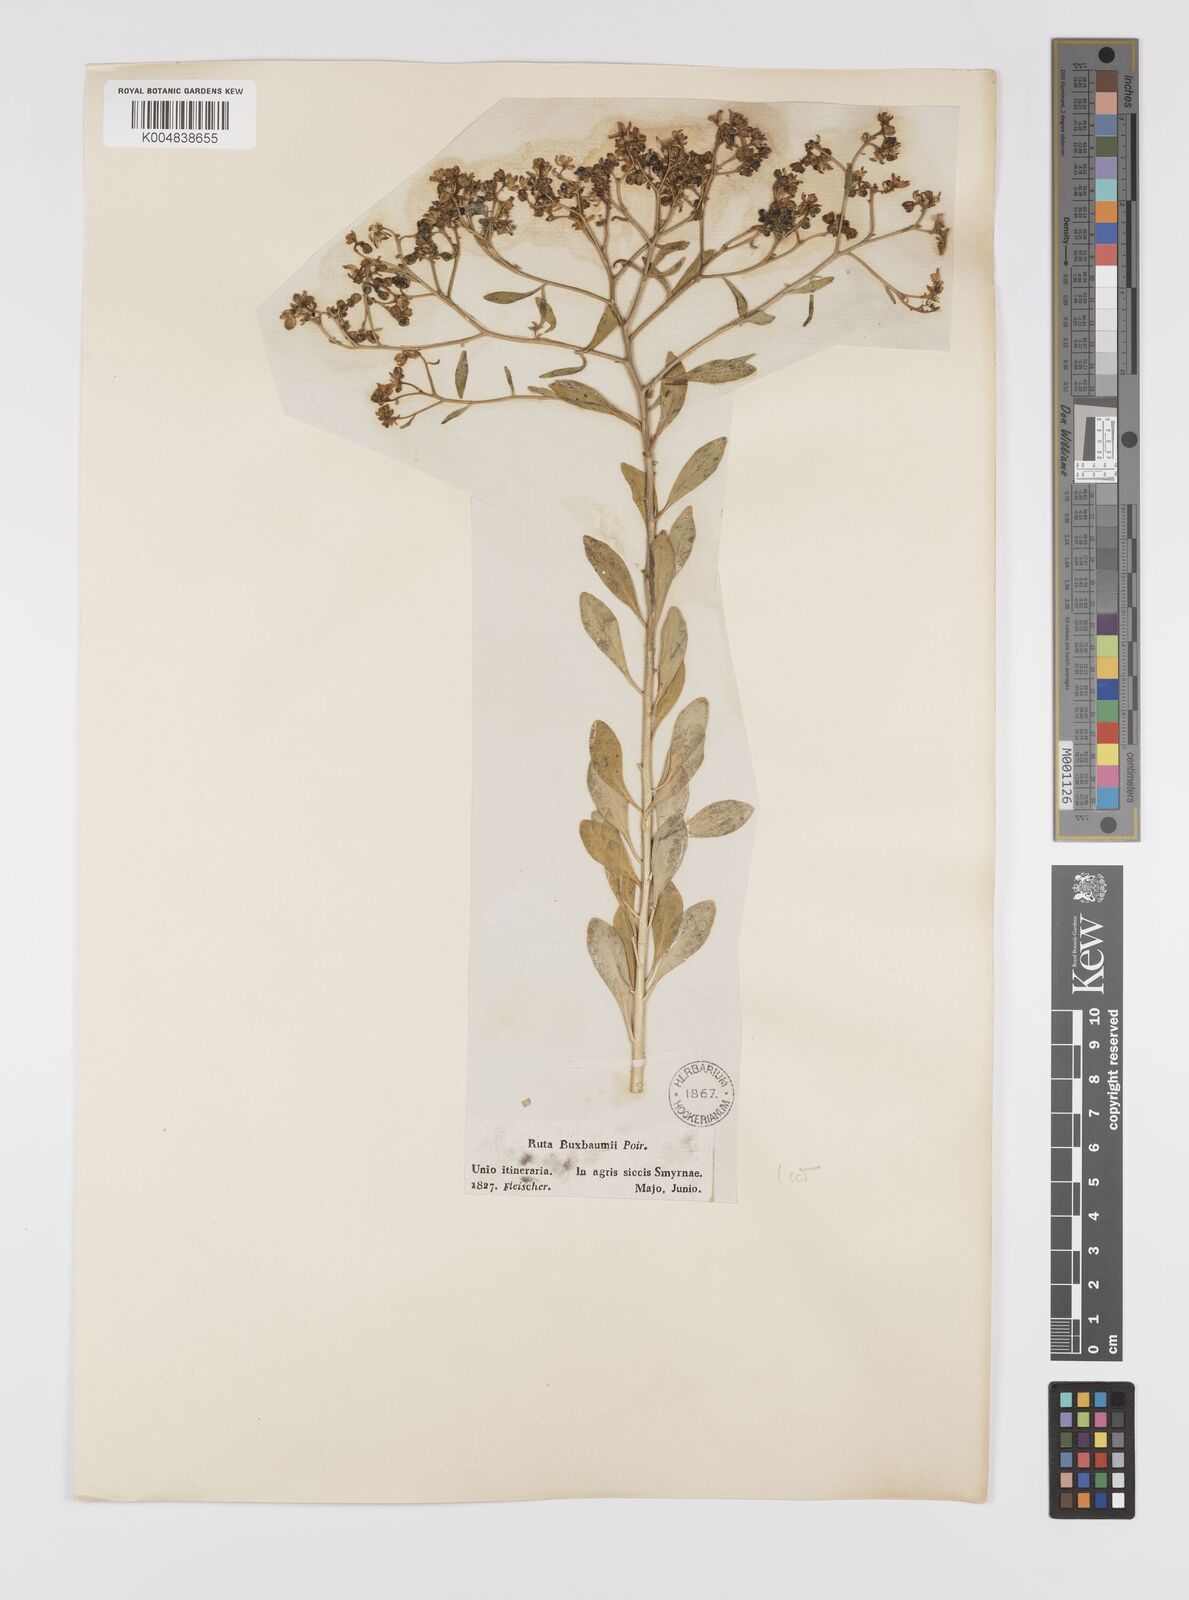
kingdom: Plantae
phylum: Tracheophyta
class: Magnoliopsida
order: Sapindales
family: Rutaceae
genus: Haplophyllum
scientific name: Haplophyllum
